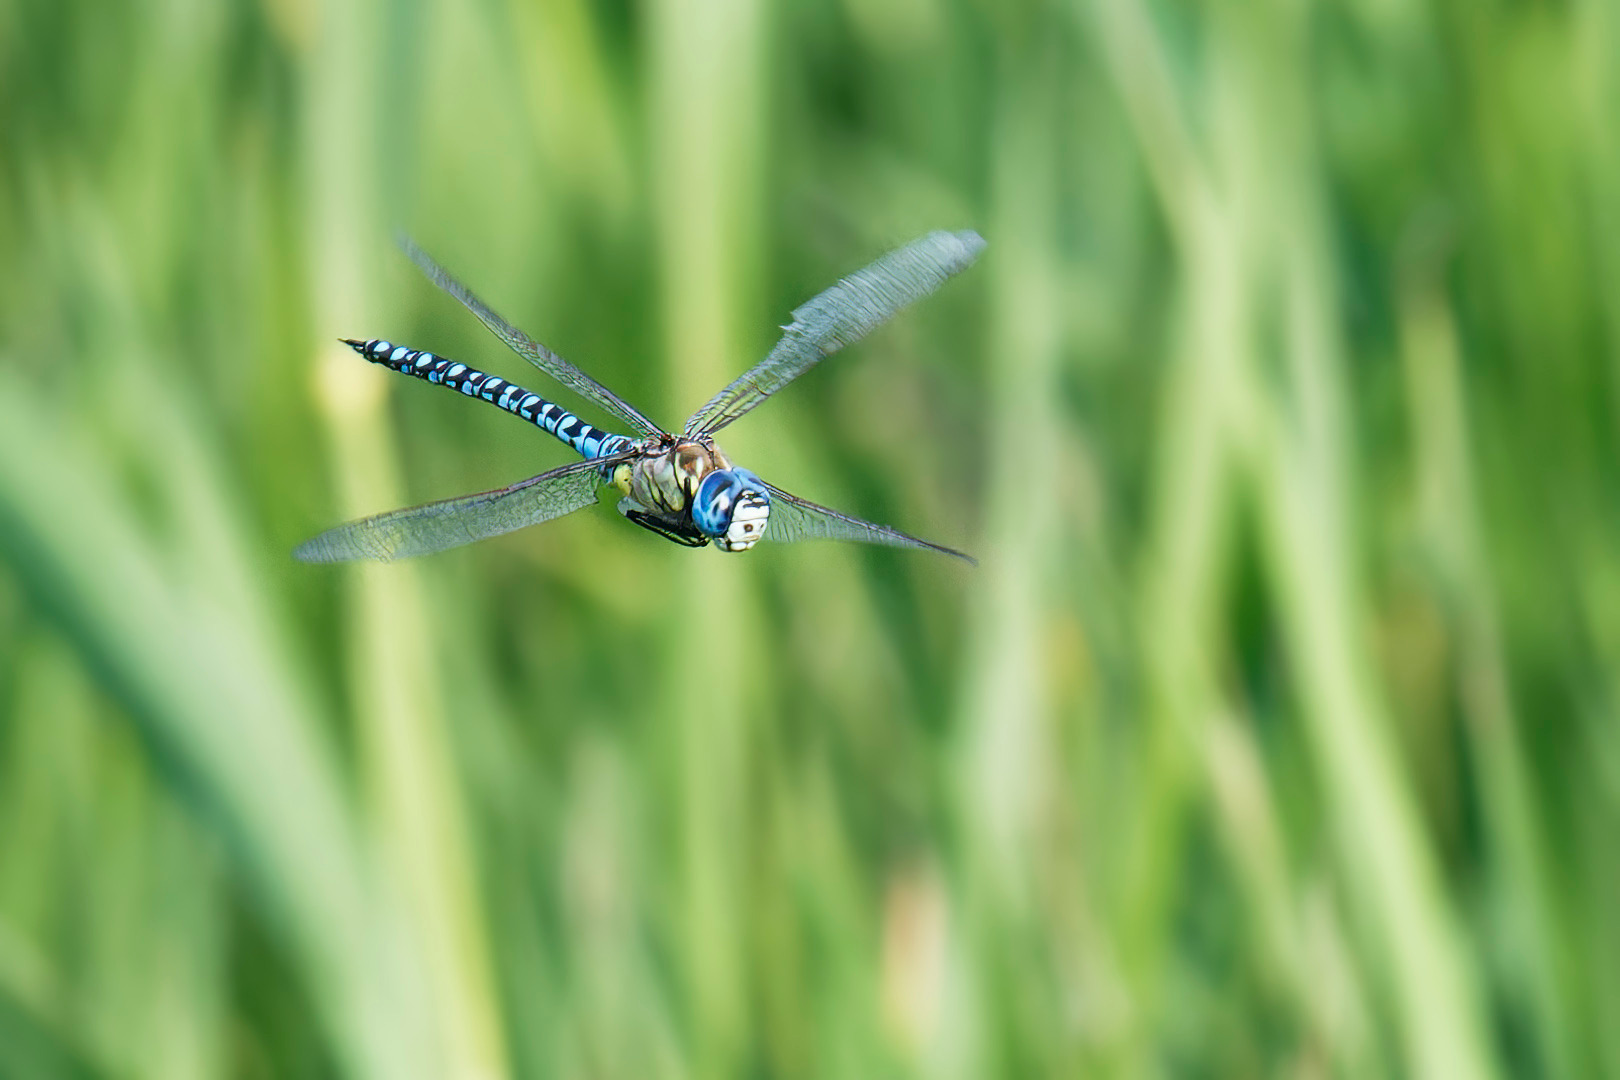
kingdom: Animalia
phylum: Arthropoda
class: Insecta
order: Odonata
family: Aeshnidae
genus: Aeshna
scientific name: Aeshna affinis
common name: Sydlig mosaikguldsmed
